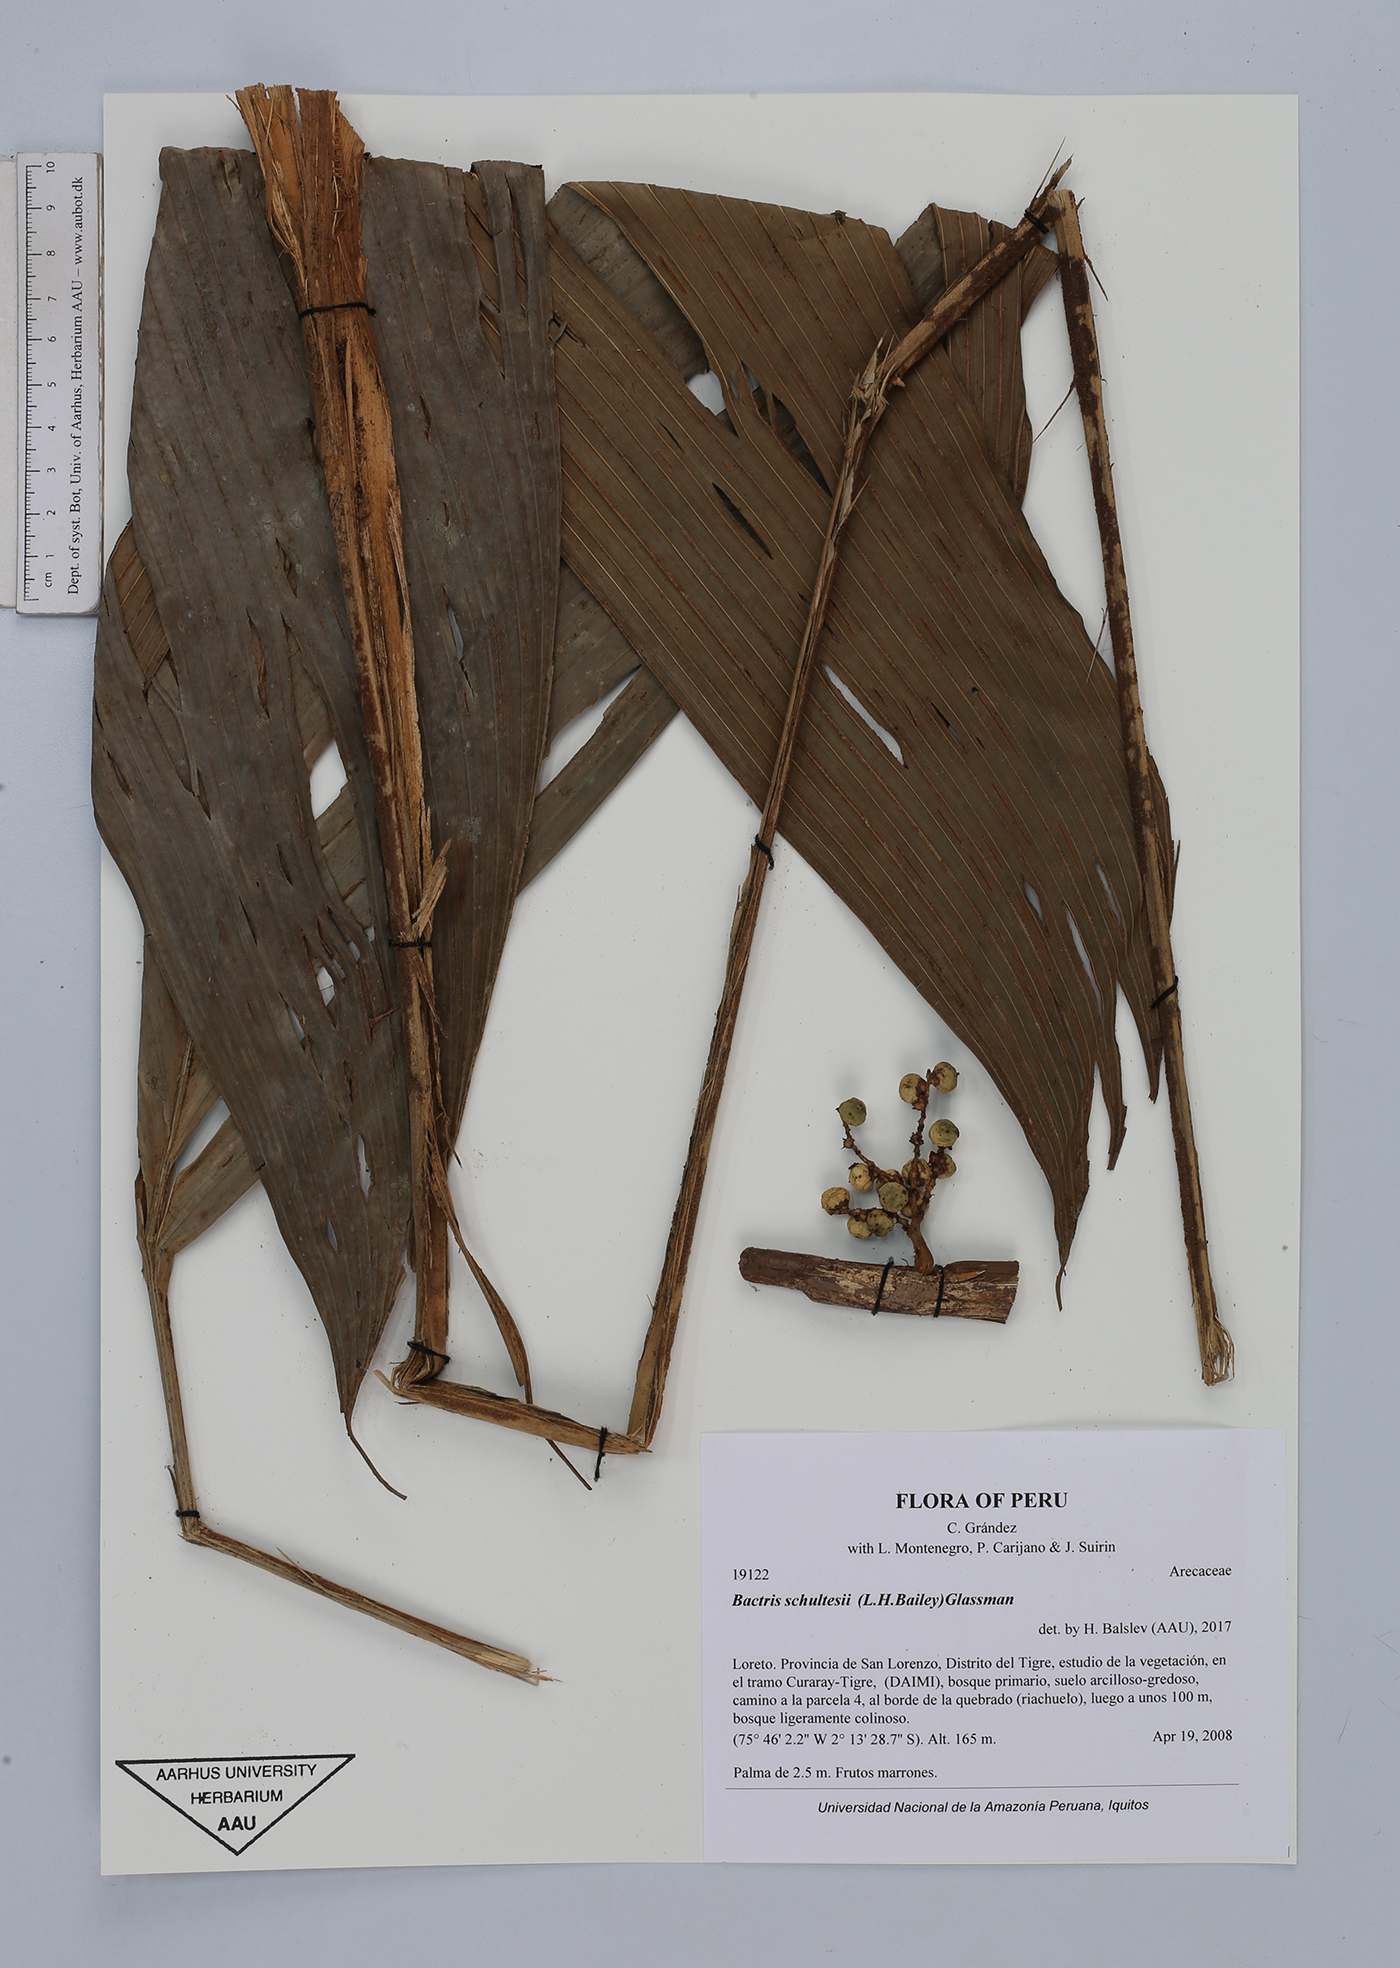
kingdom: Plantae
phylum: Tracheophyta
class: Liliopsida
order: Arecales
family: Arecaceae
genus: Bactris
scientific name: Bactris schultesii
